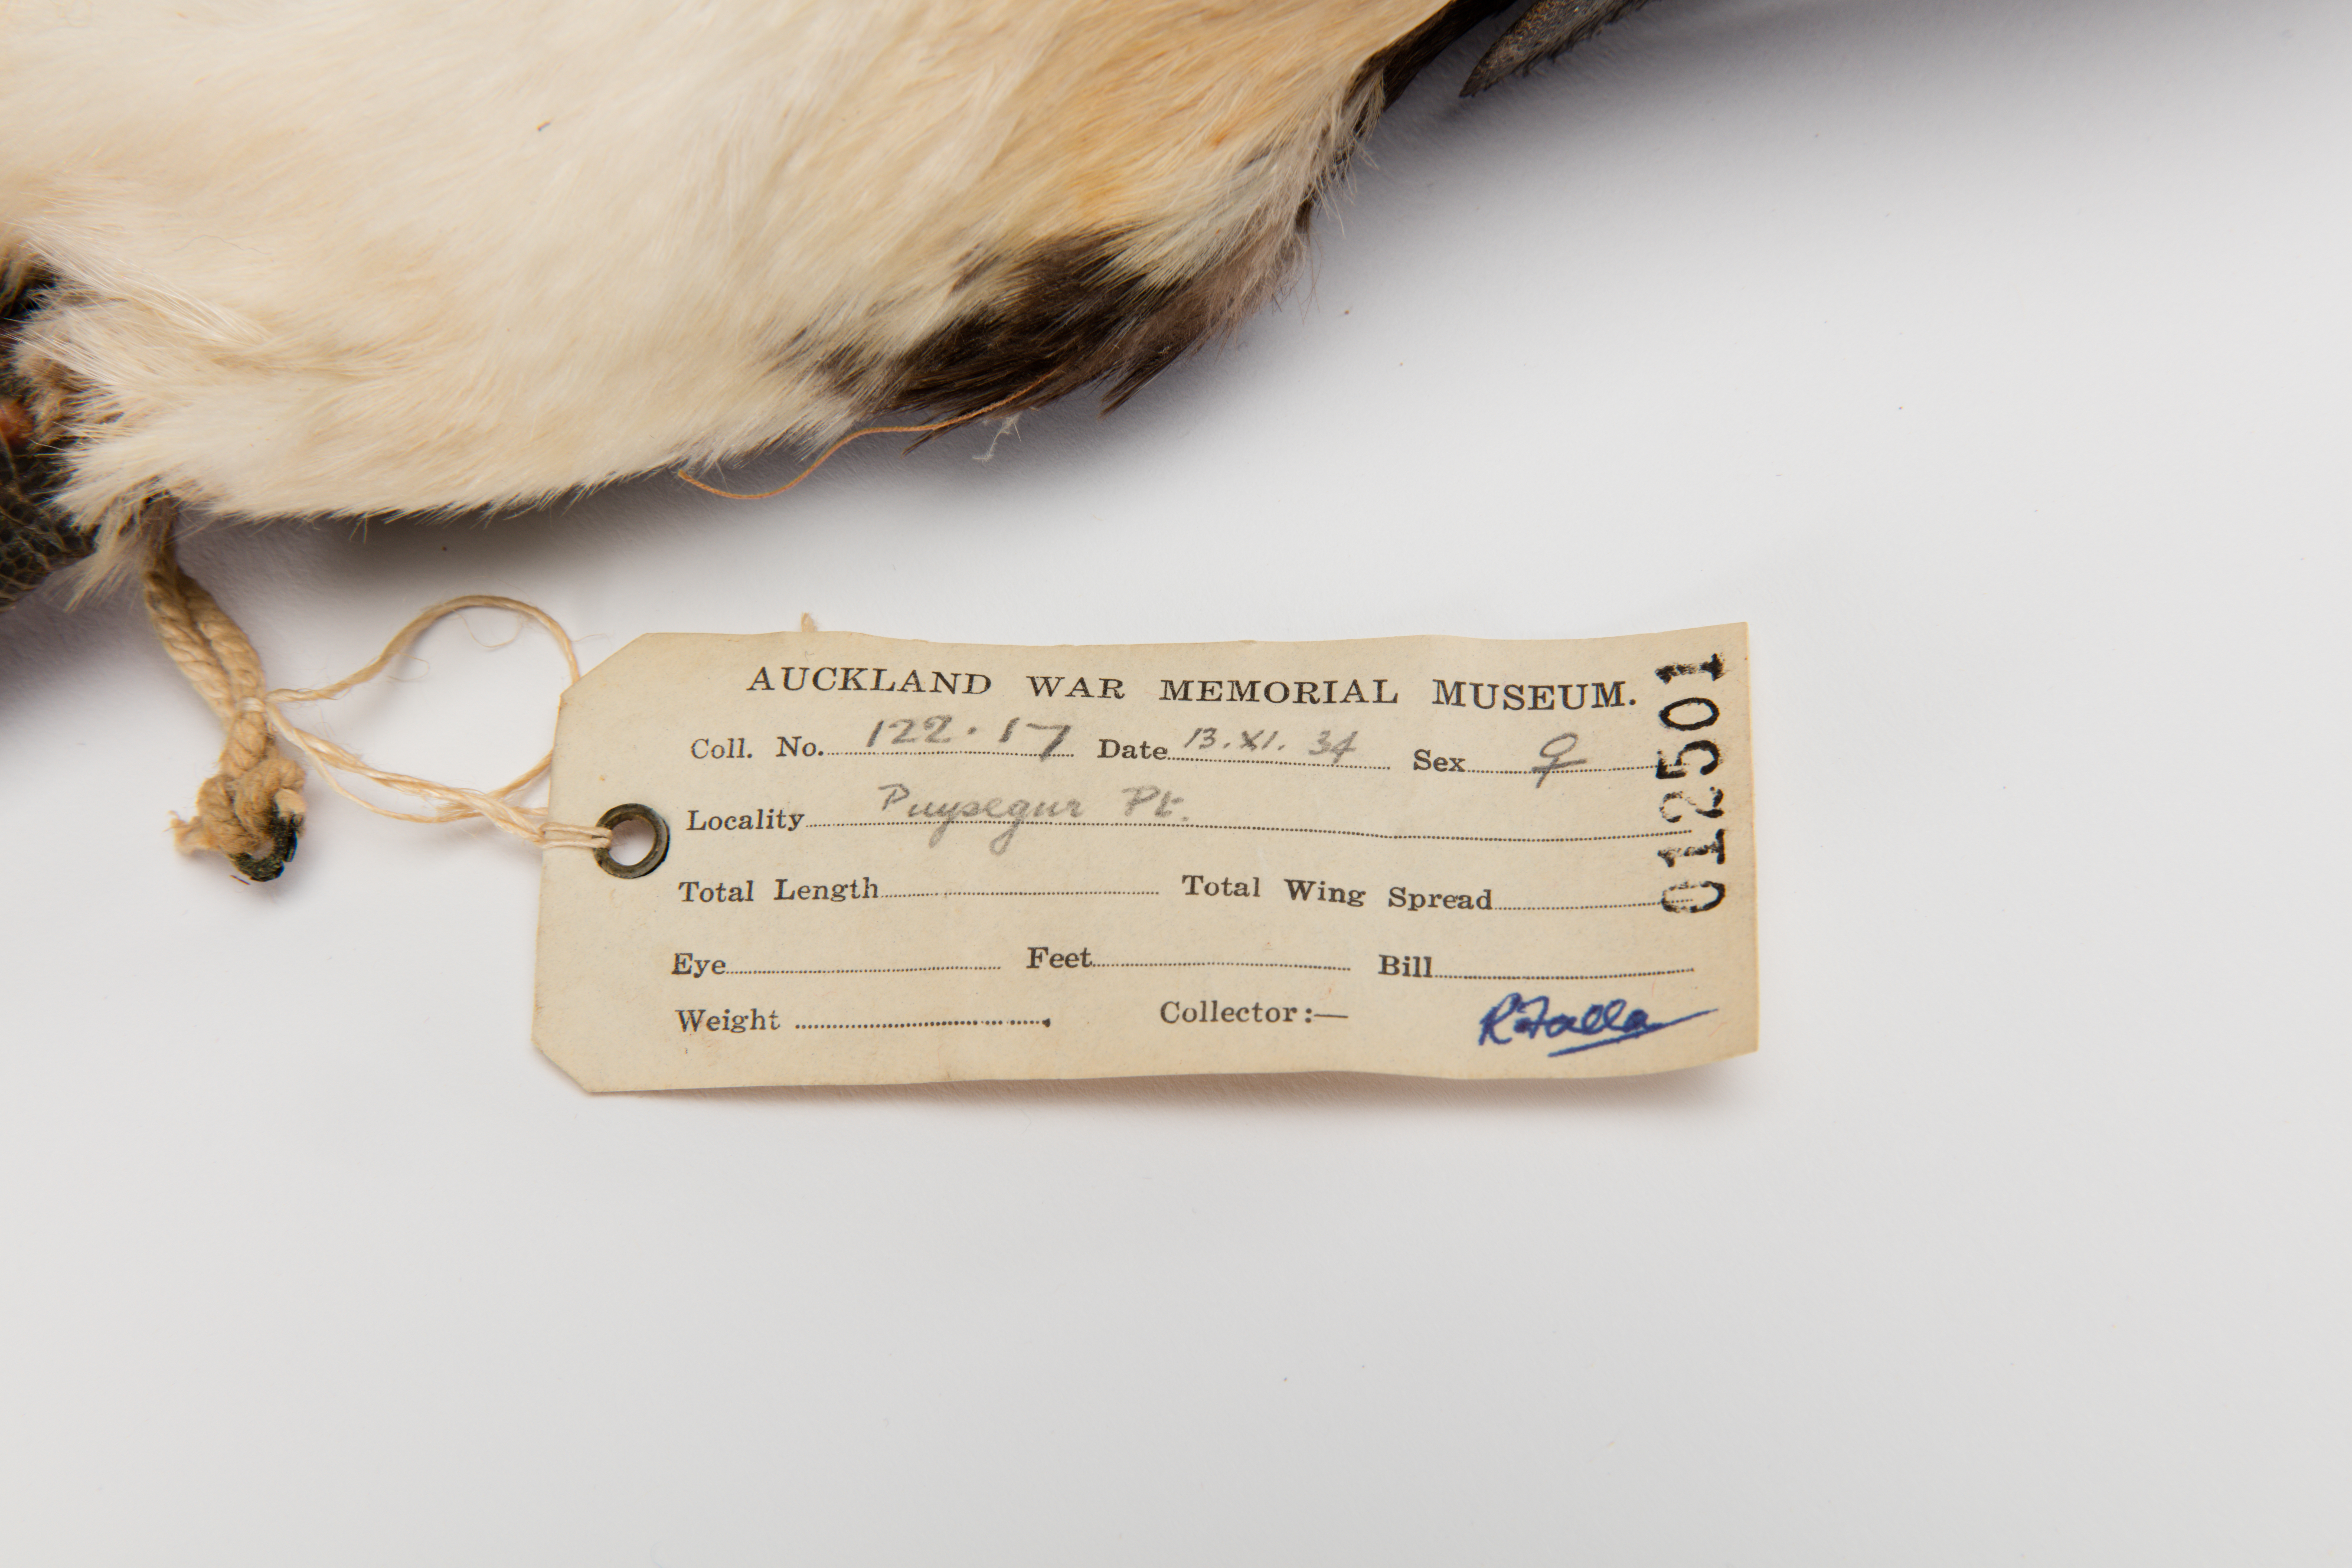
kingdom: Animalia
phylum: Chordata
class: Aves
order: Sphenisciformes
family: Spheniscidae
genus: Eudyptes
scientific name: Eudyptes pachyrhynchus
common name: Fiordland penguin
